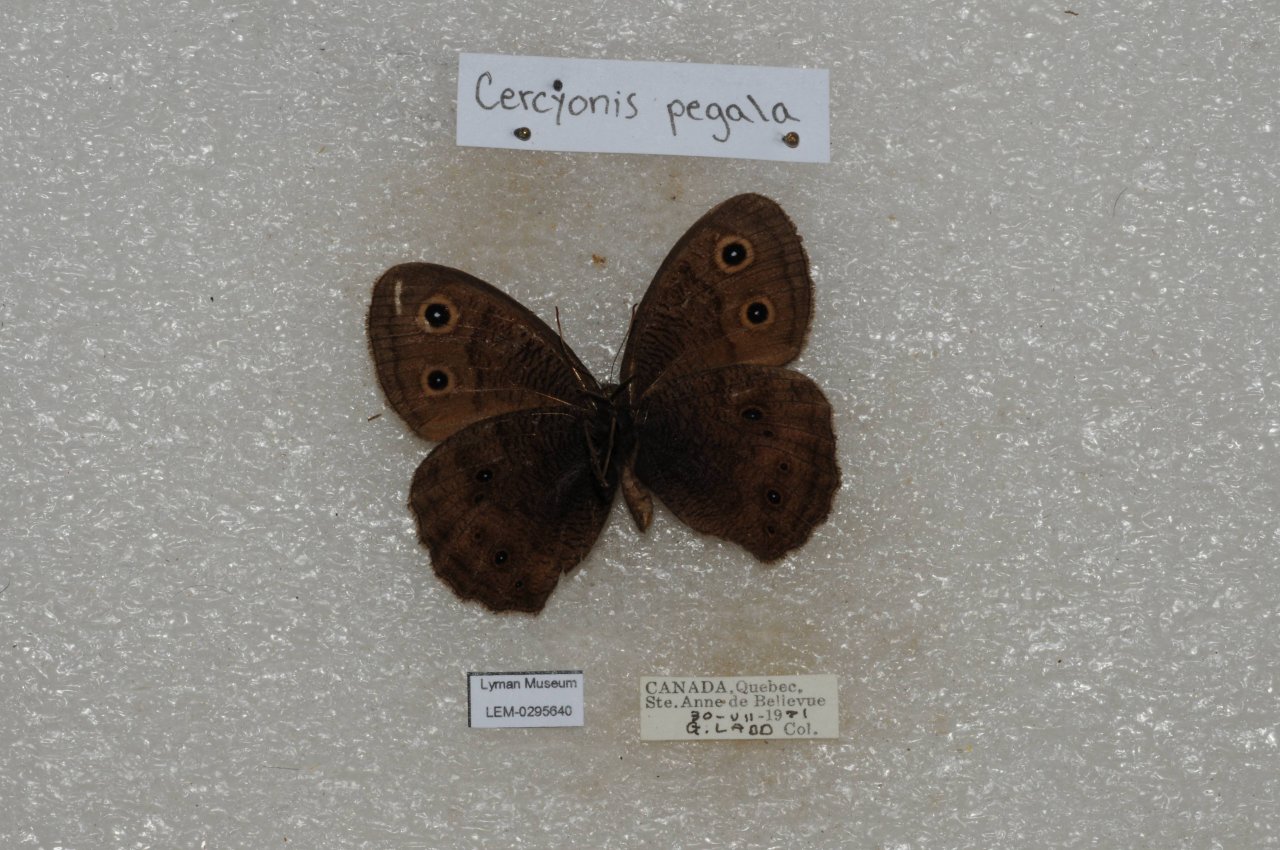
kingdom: Animalia
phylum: Arthropoda
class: Insecta
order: Lepidoptera
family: Nymphalidae
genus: Cercyonis
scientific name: Cercyonis pegala
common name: Common Wood-Nymph
